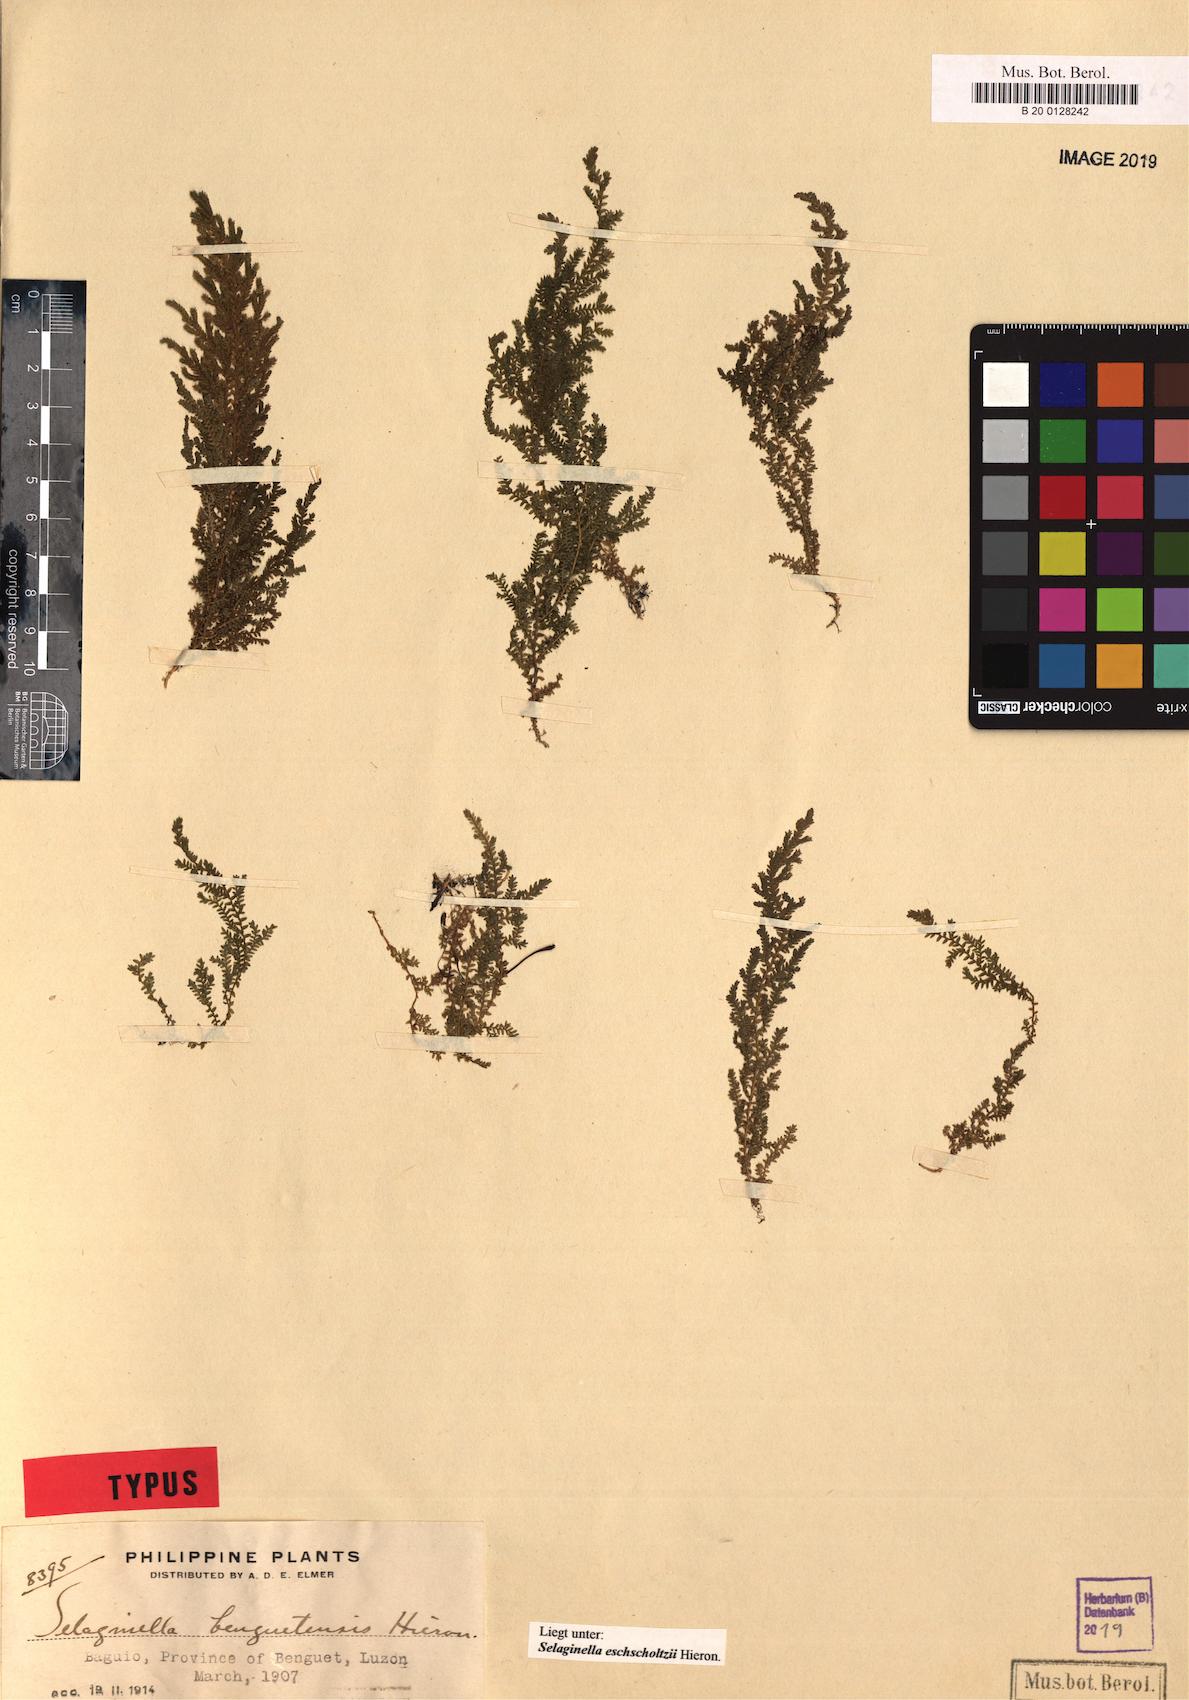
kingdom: Plantae
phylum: Tracheophyta
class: Lycopodiopsida
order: Selaginellales
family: Selaginellaceae
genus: Selaginella
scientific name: Selaginella eschscholzii
